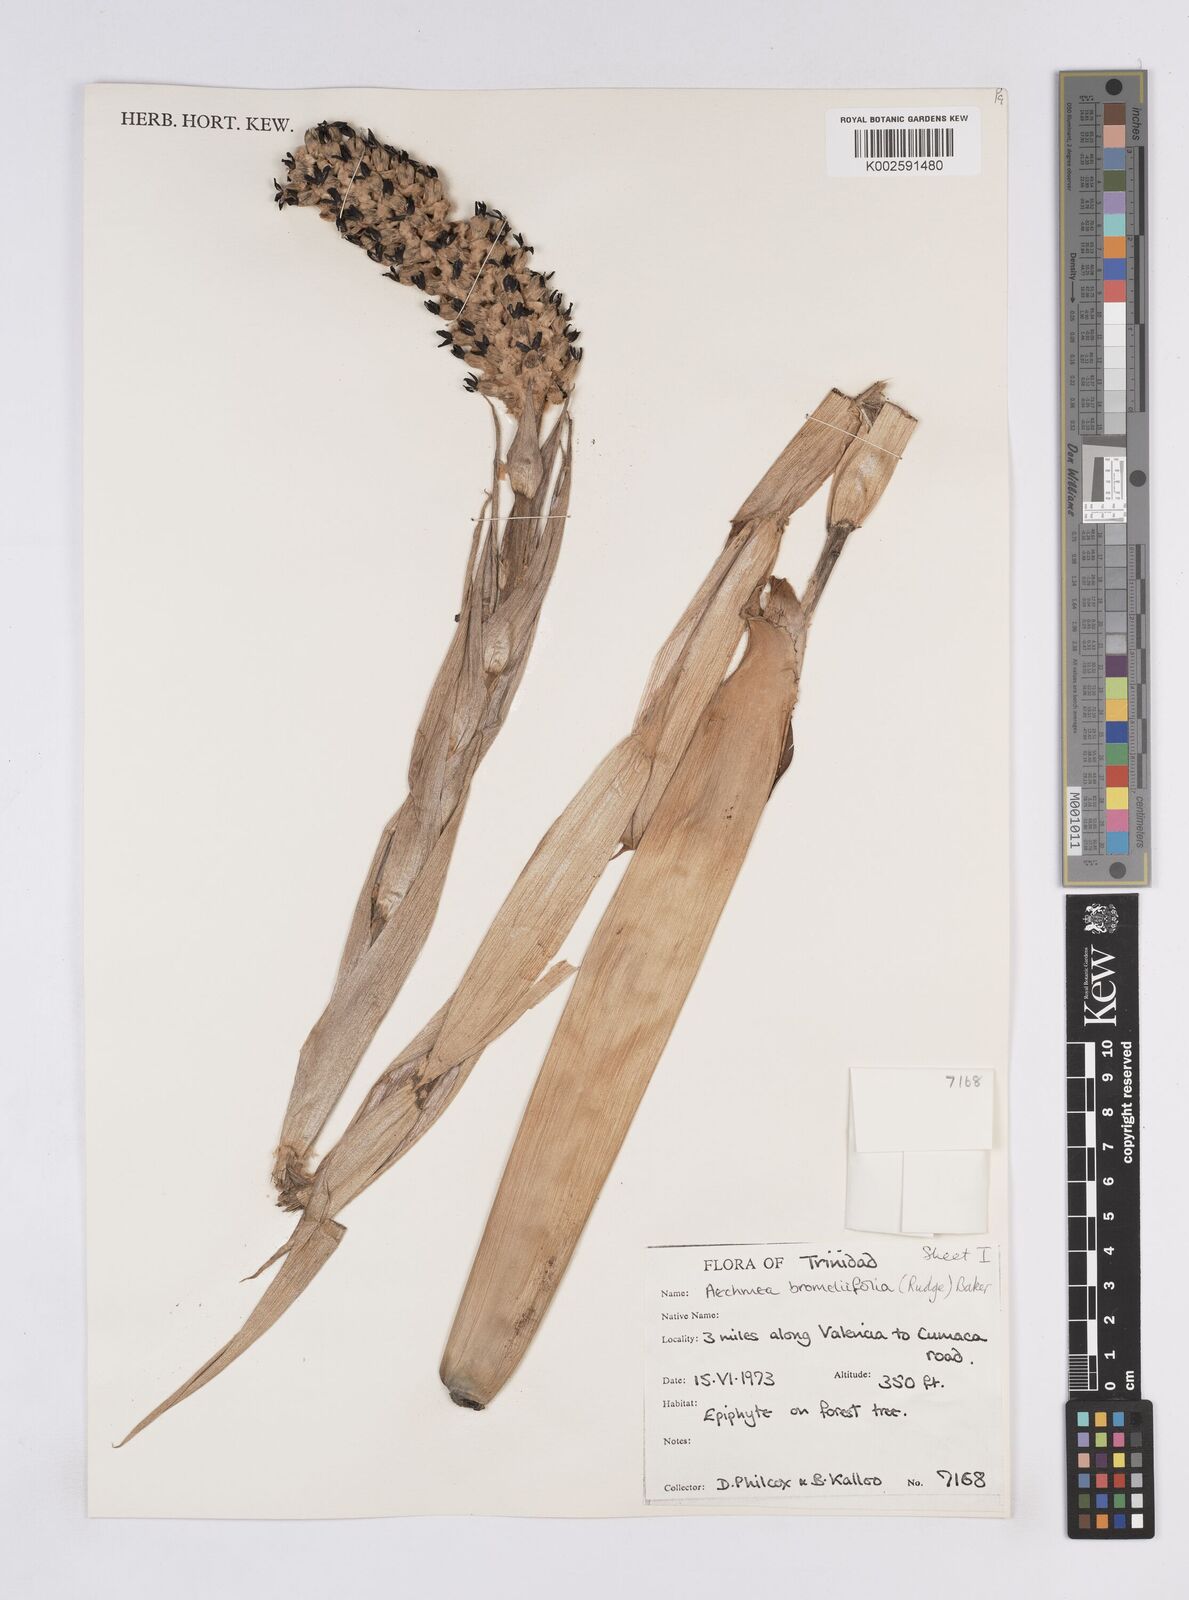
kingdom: Plantae
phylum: Tracheophyta
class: Liliopsida
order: Poales
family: Bromeliaceae
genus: Aechmea
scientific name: Aechmea bromeliifolia
